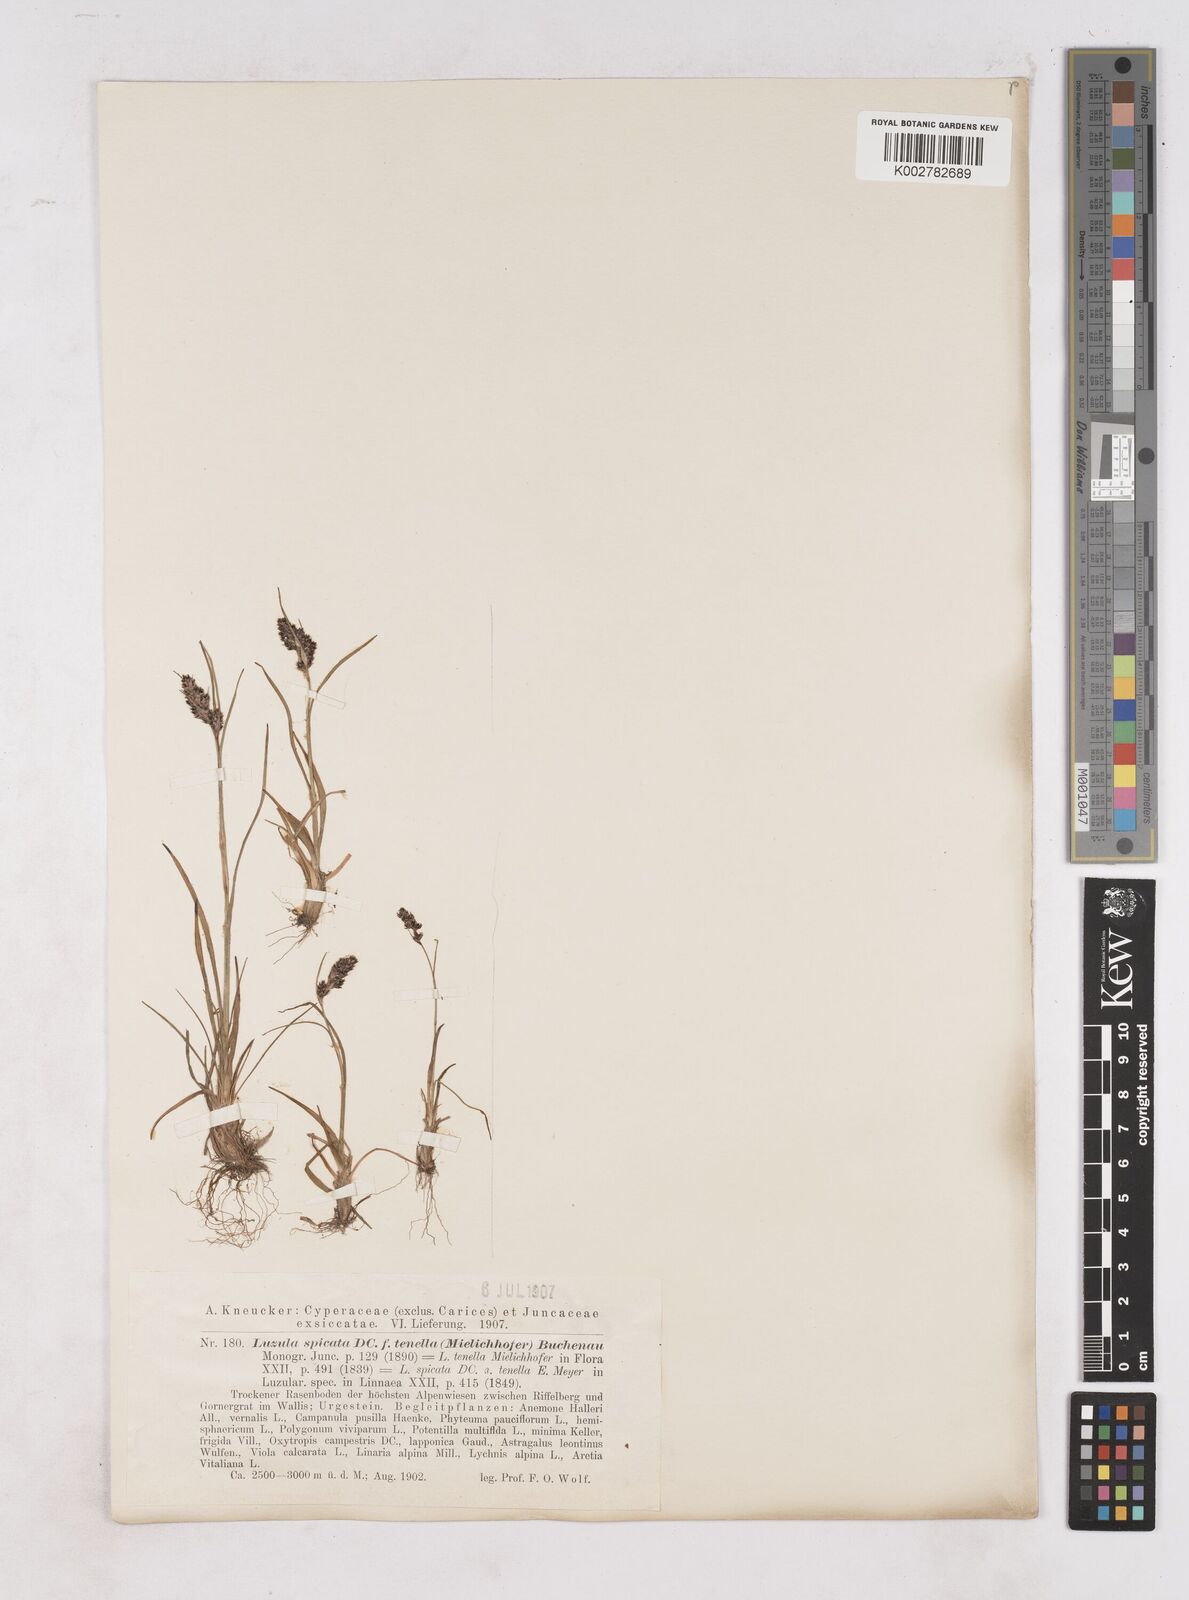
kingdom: Plantae
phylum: Tracheophyta
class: Liliopsida
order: Poales
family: Juncaceae
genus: Luzula
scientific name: Luzula spicata
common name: Spiked wood-rush
